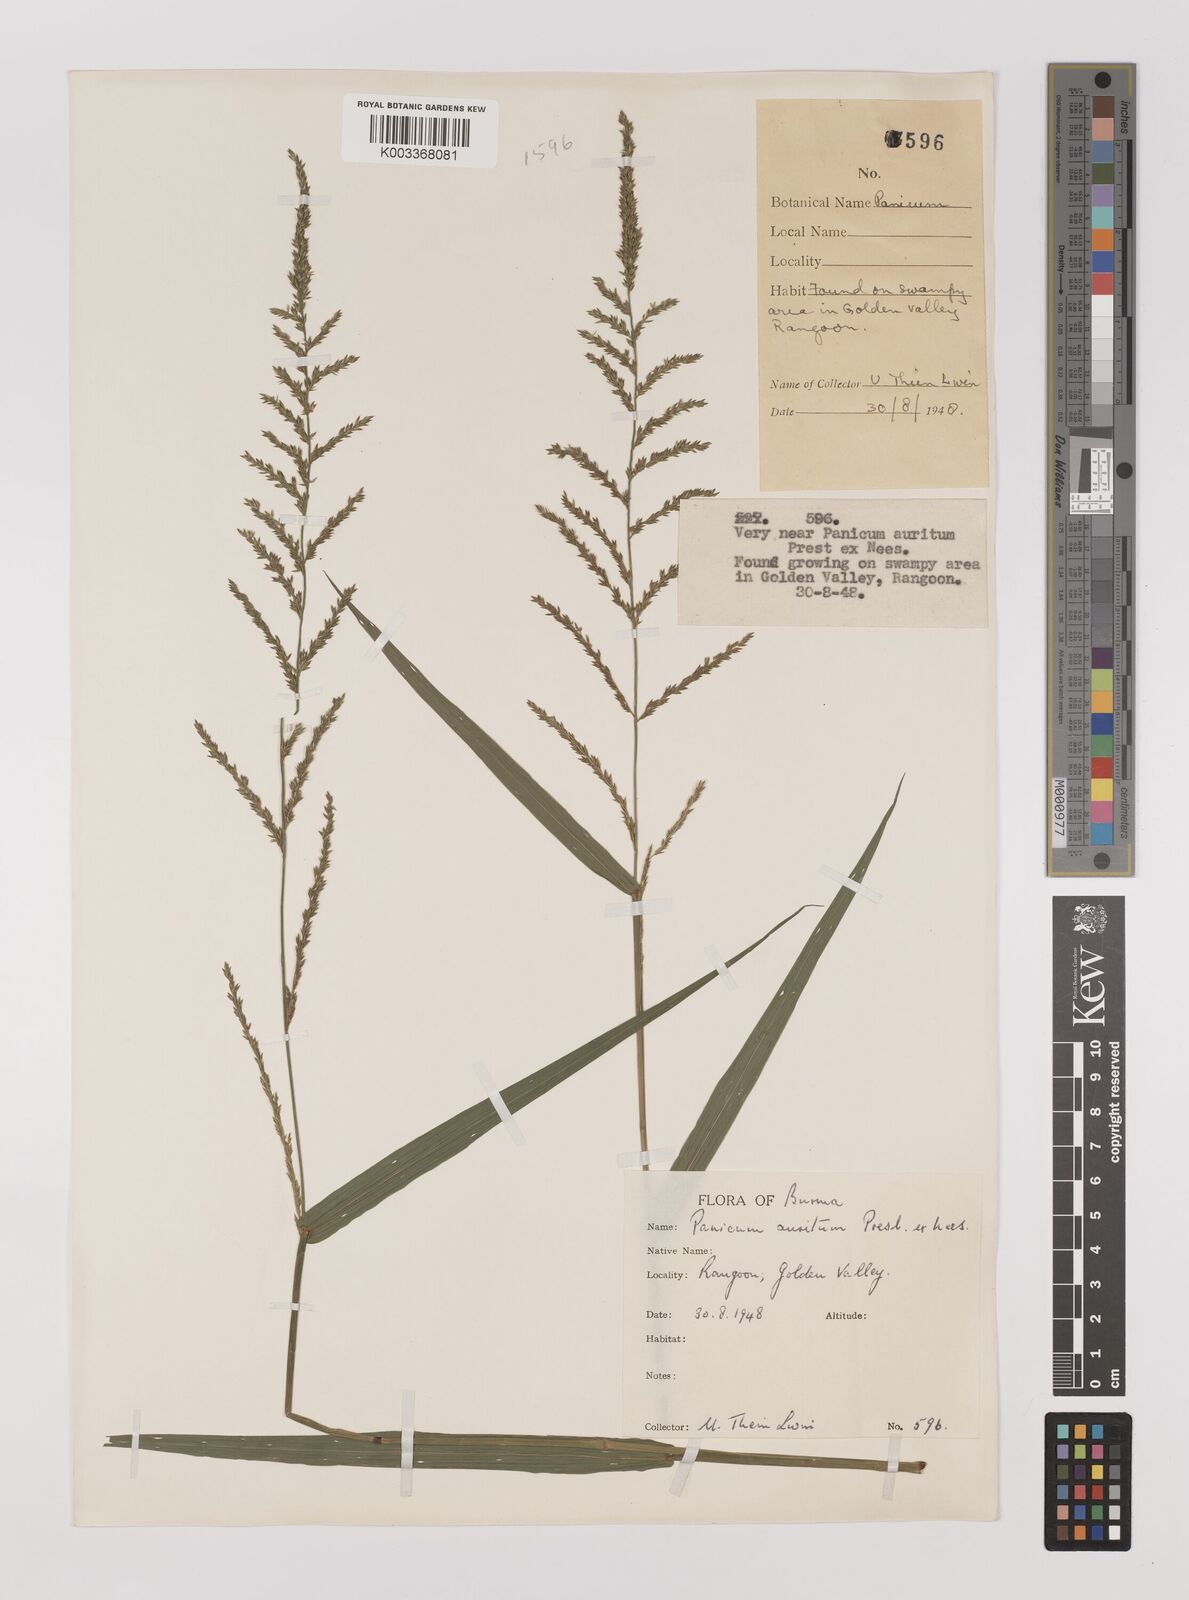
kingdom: Plantae
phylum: Tracheophyta
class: Liliopsida
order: Poales
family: Poaceae
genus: Hymenachne
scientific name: Hymenachne aurita
